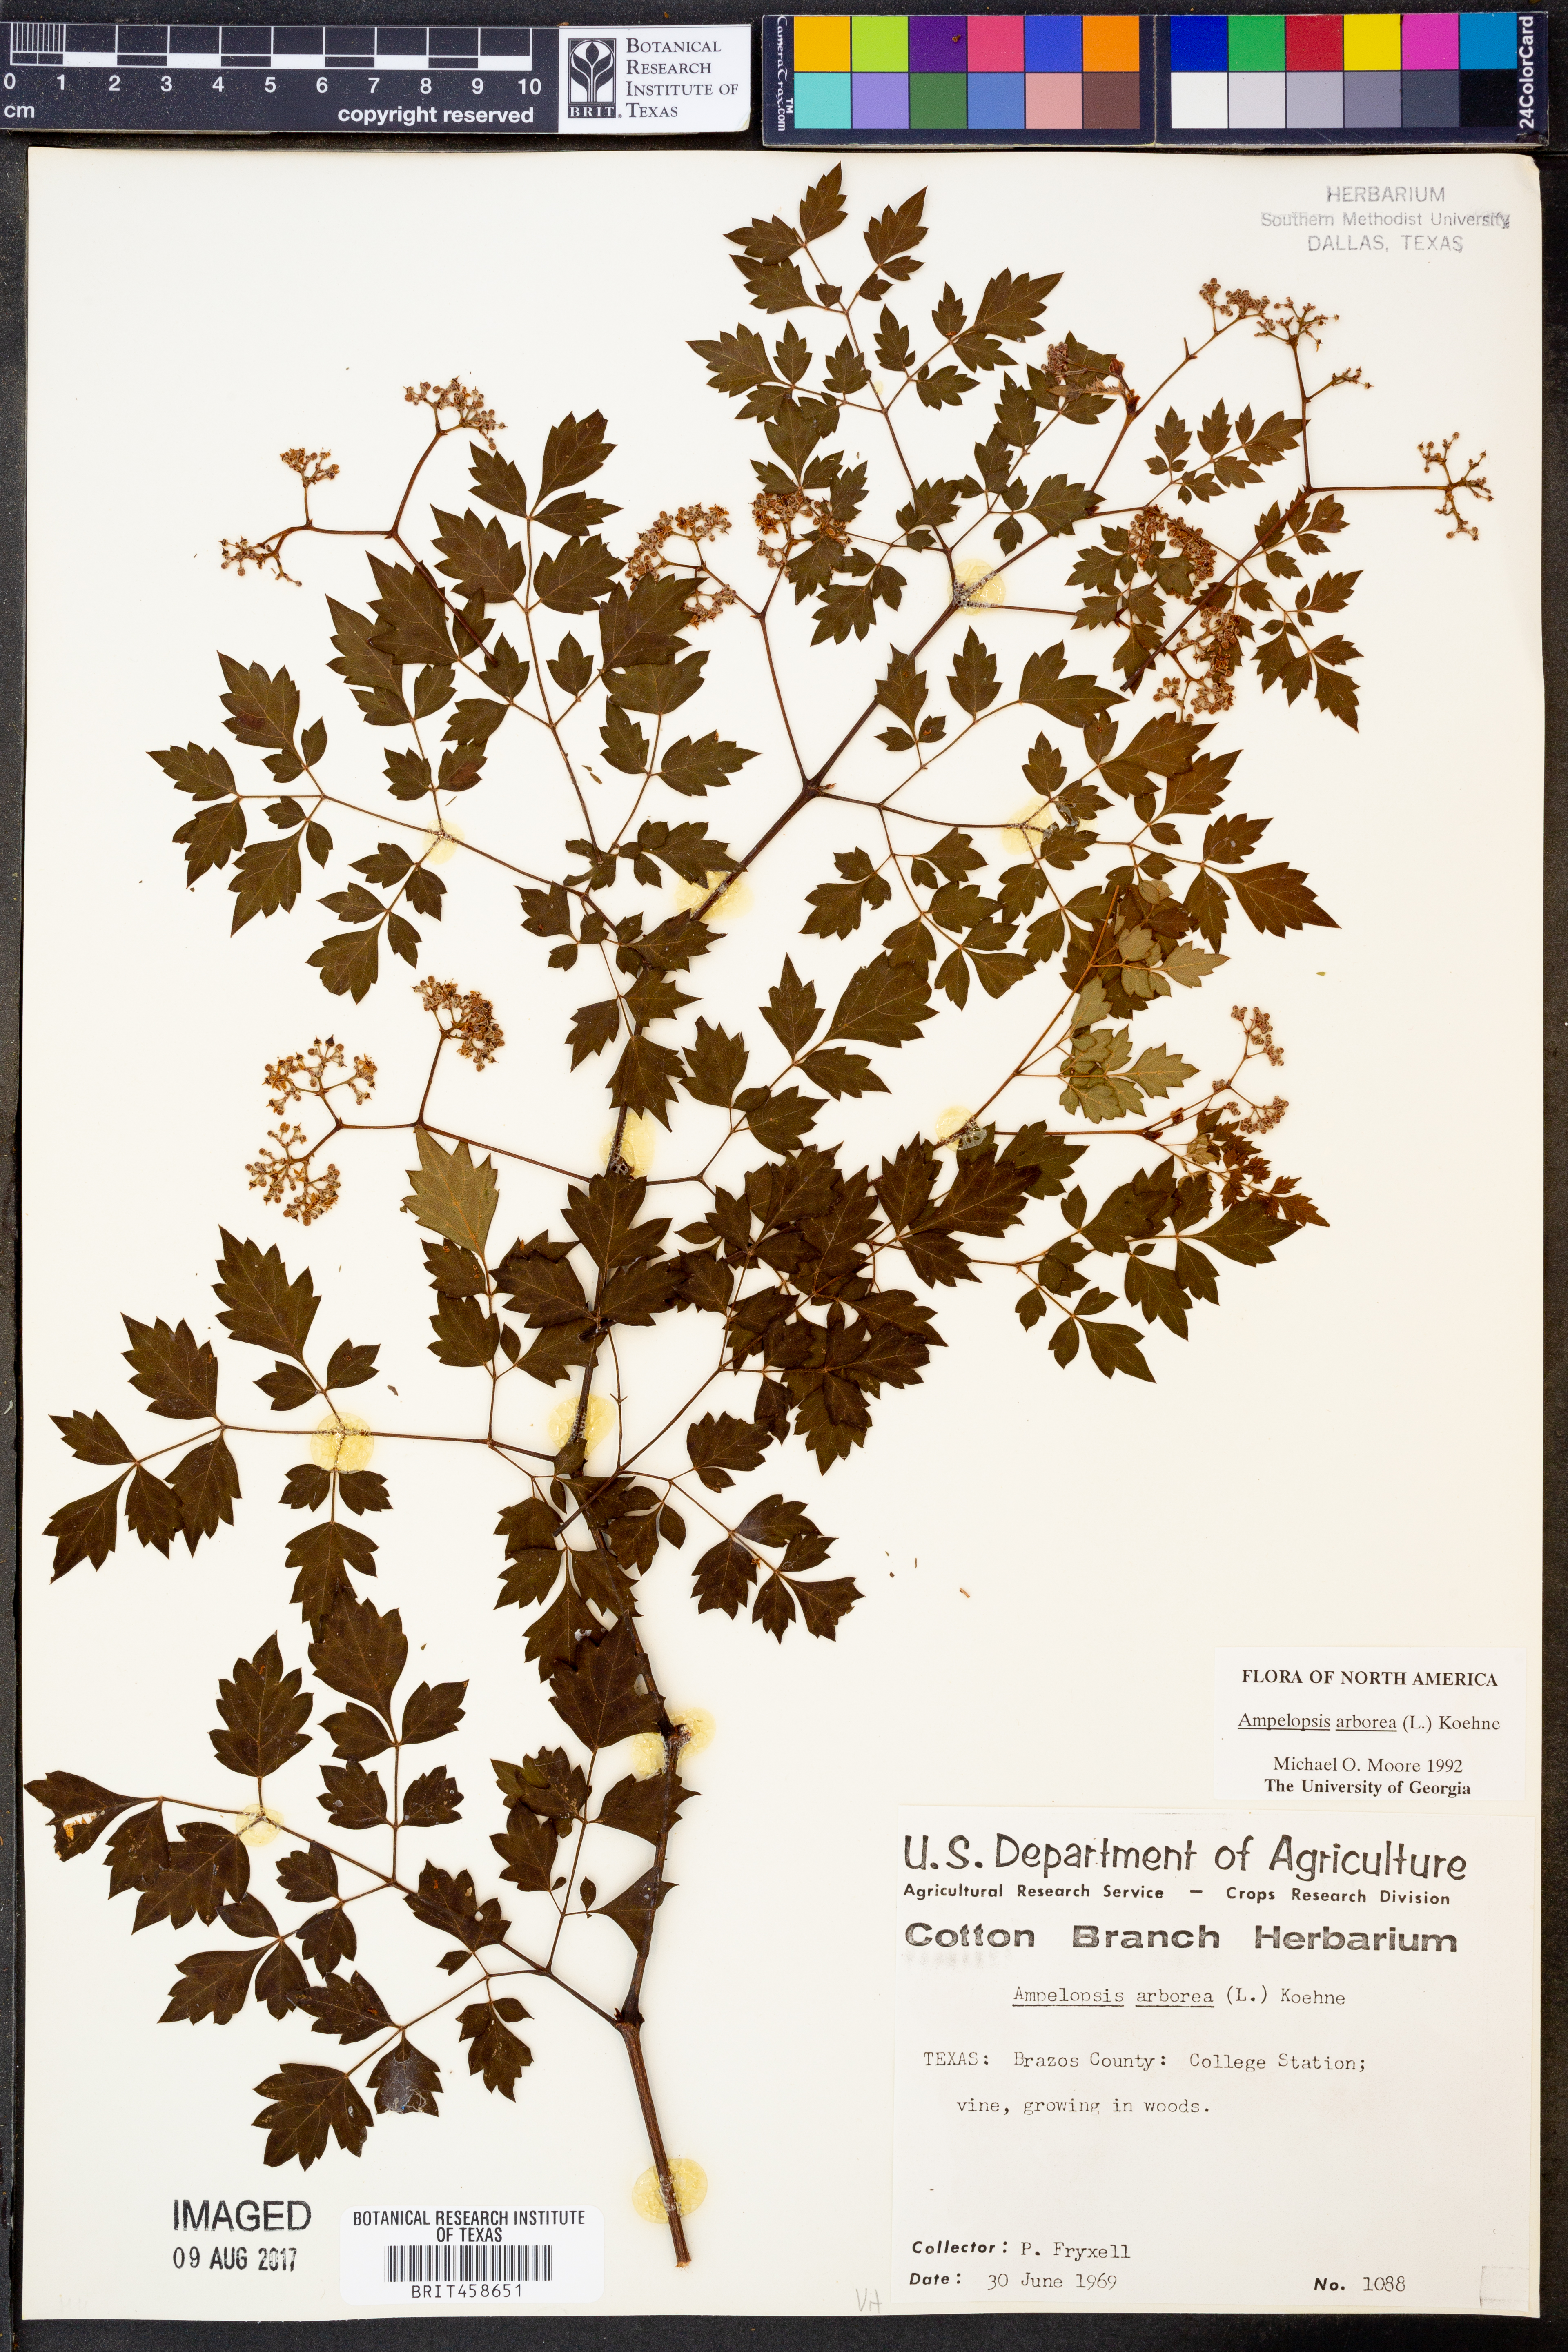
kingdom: Plantae
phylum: Tracheophyta
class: Magnoliopsida
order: Vitales
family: Vitaceae
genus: Nekemias
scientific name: Nekemias arborea
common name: Peppervine
